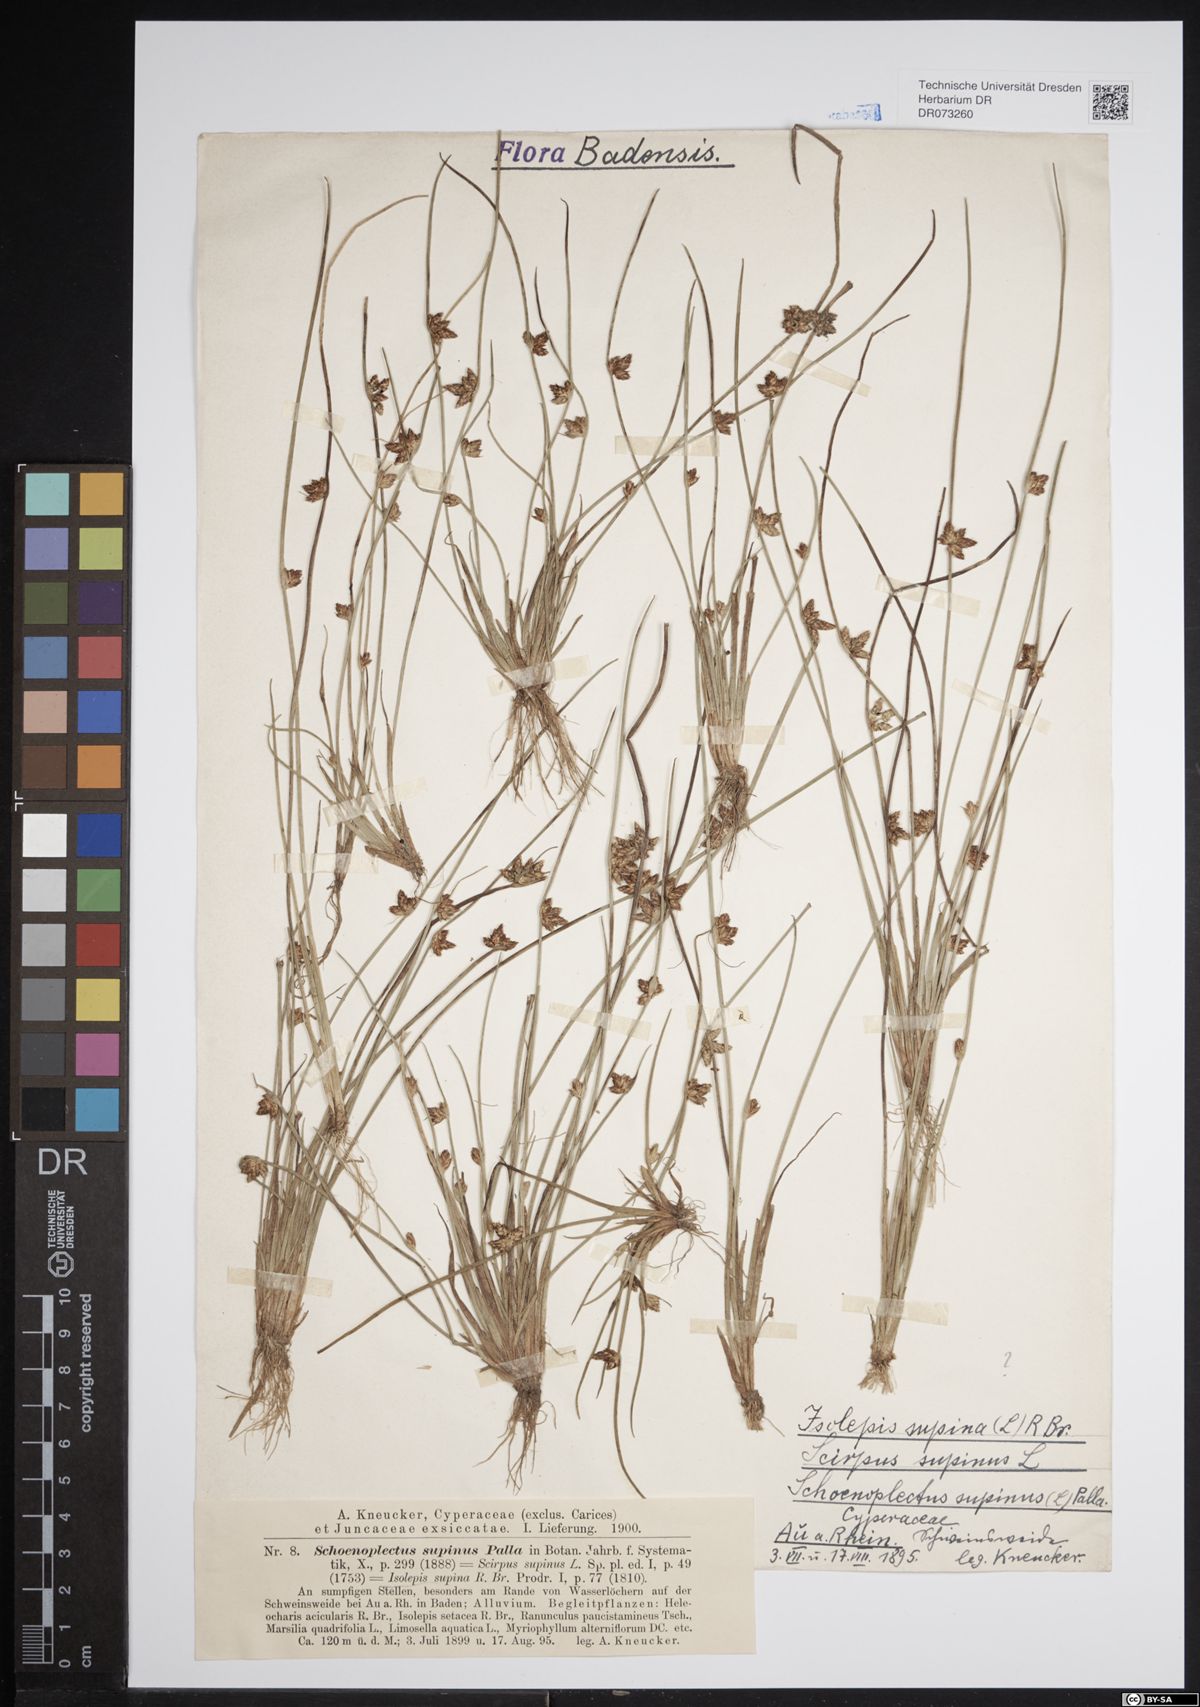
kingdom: Plantae
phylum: Tracheophyta
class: Liliopsida
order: Poales
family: Cyperaceae
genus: Schoenoplectiella
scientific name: Schoenoplectiella supina
